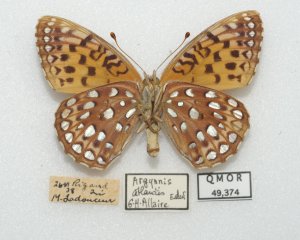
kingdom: Animalia
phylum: Arthropoda
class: Insecta
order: Lepidoptera
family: Nymphalidae
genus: Speyeria
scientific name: Speyeria atlantis
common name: Atlantis Fritillary
